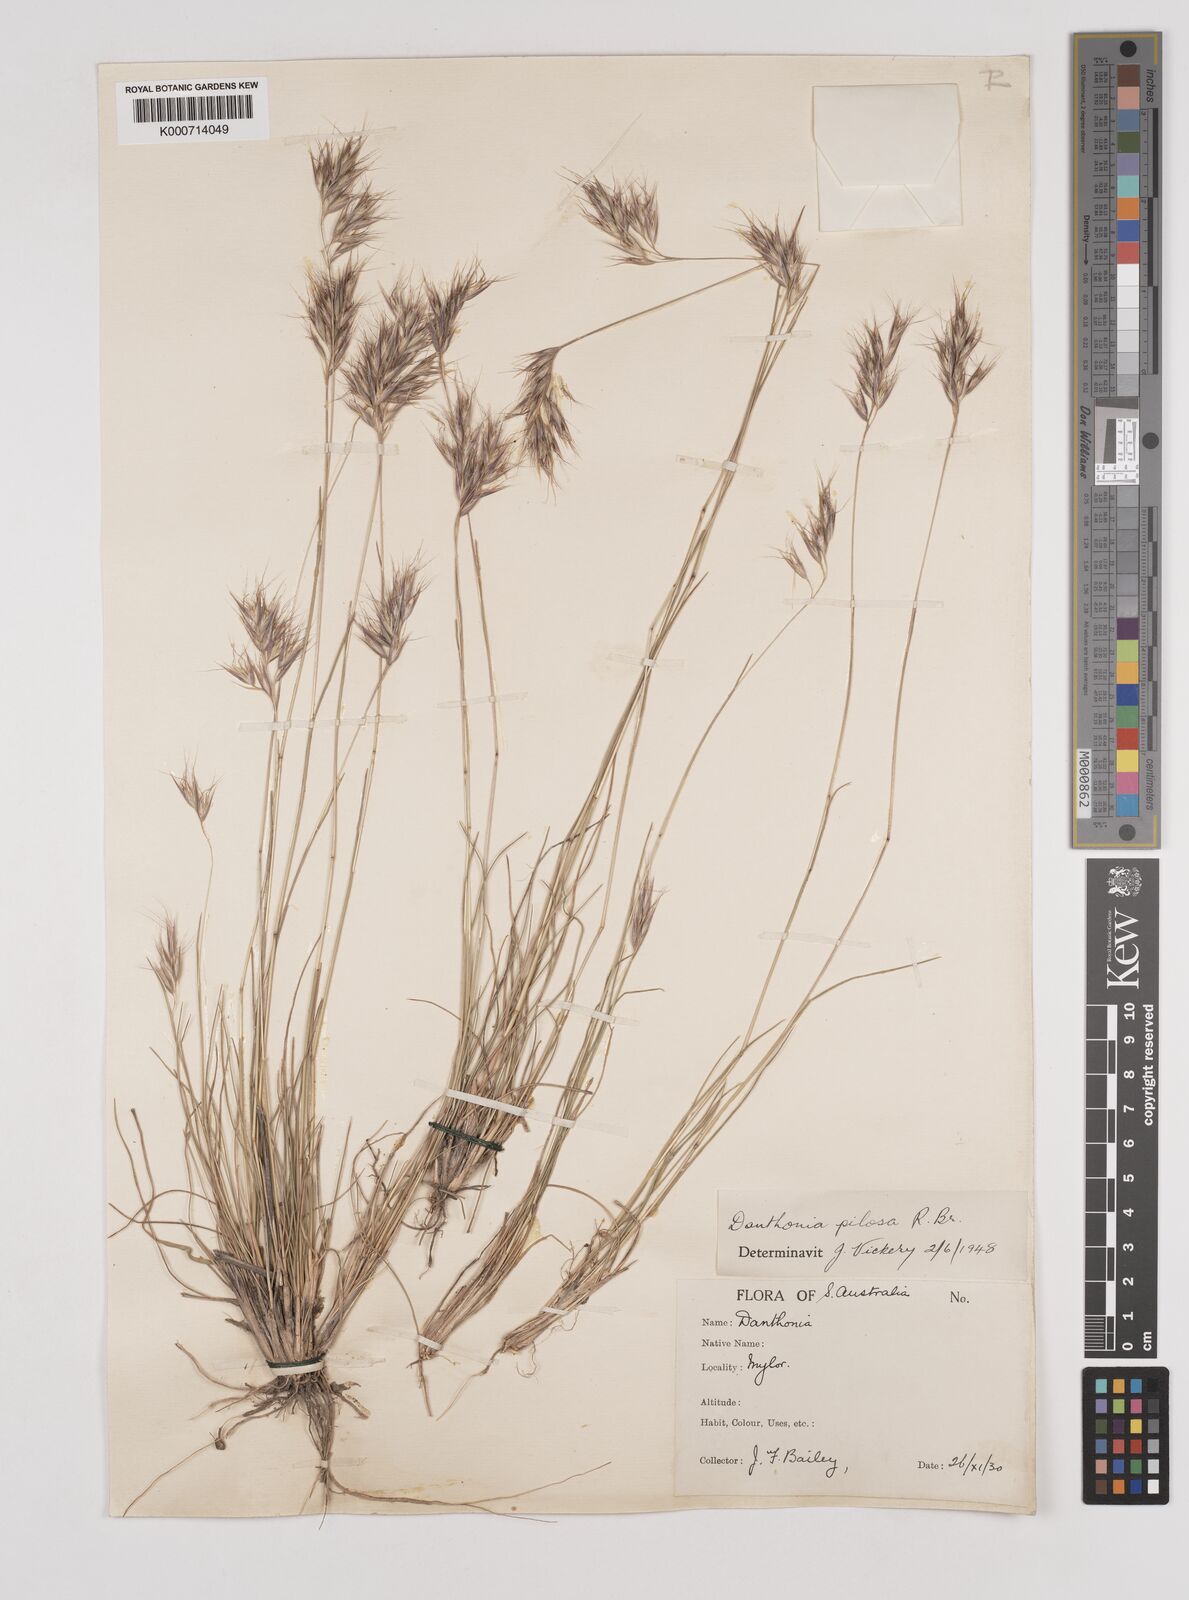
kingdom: Plantae
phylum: Tracheophyta
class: Liliopsida
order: Poales
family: Poaceae
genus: Rytidosperma
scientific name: Rytidosperma pilosum
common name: Hairy wallaby grass
